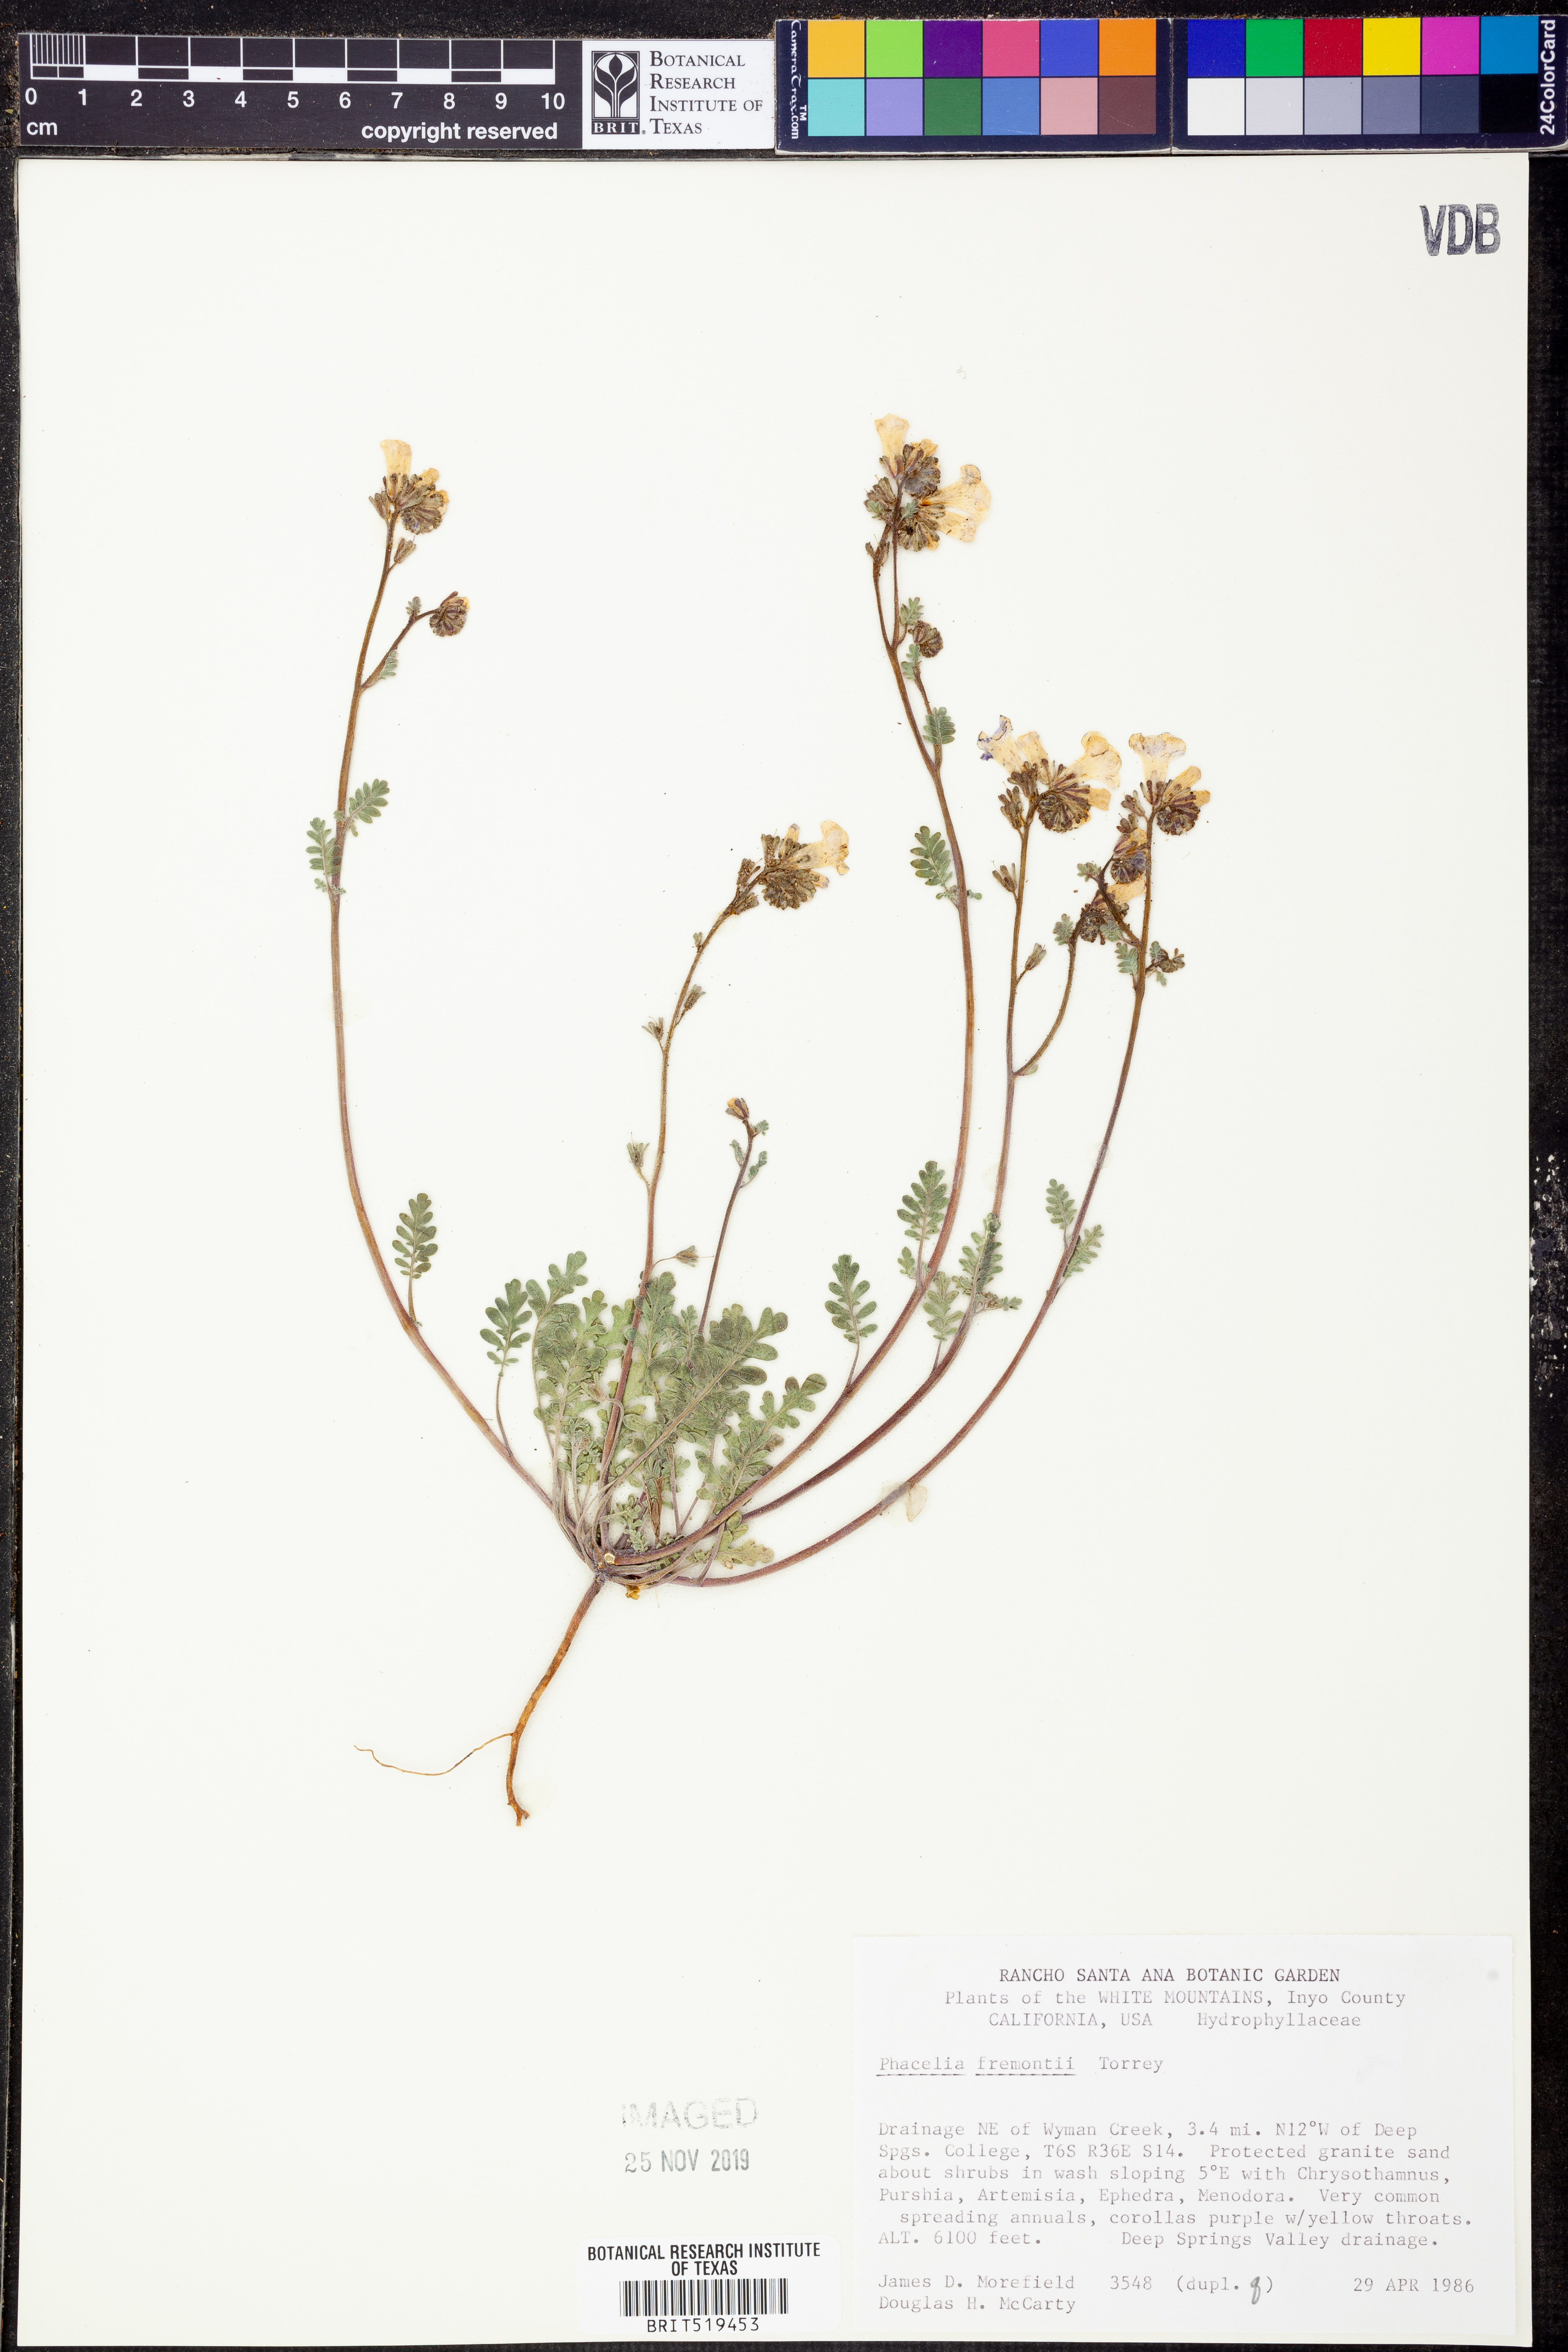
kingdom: Plantae
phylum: Tracheophyta
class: Magnoliopsida
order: Boraginales
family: Hydrophyllaceae
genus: Phacelia
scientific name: Phacelia fremontii
